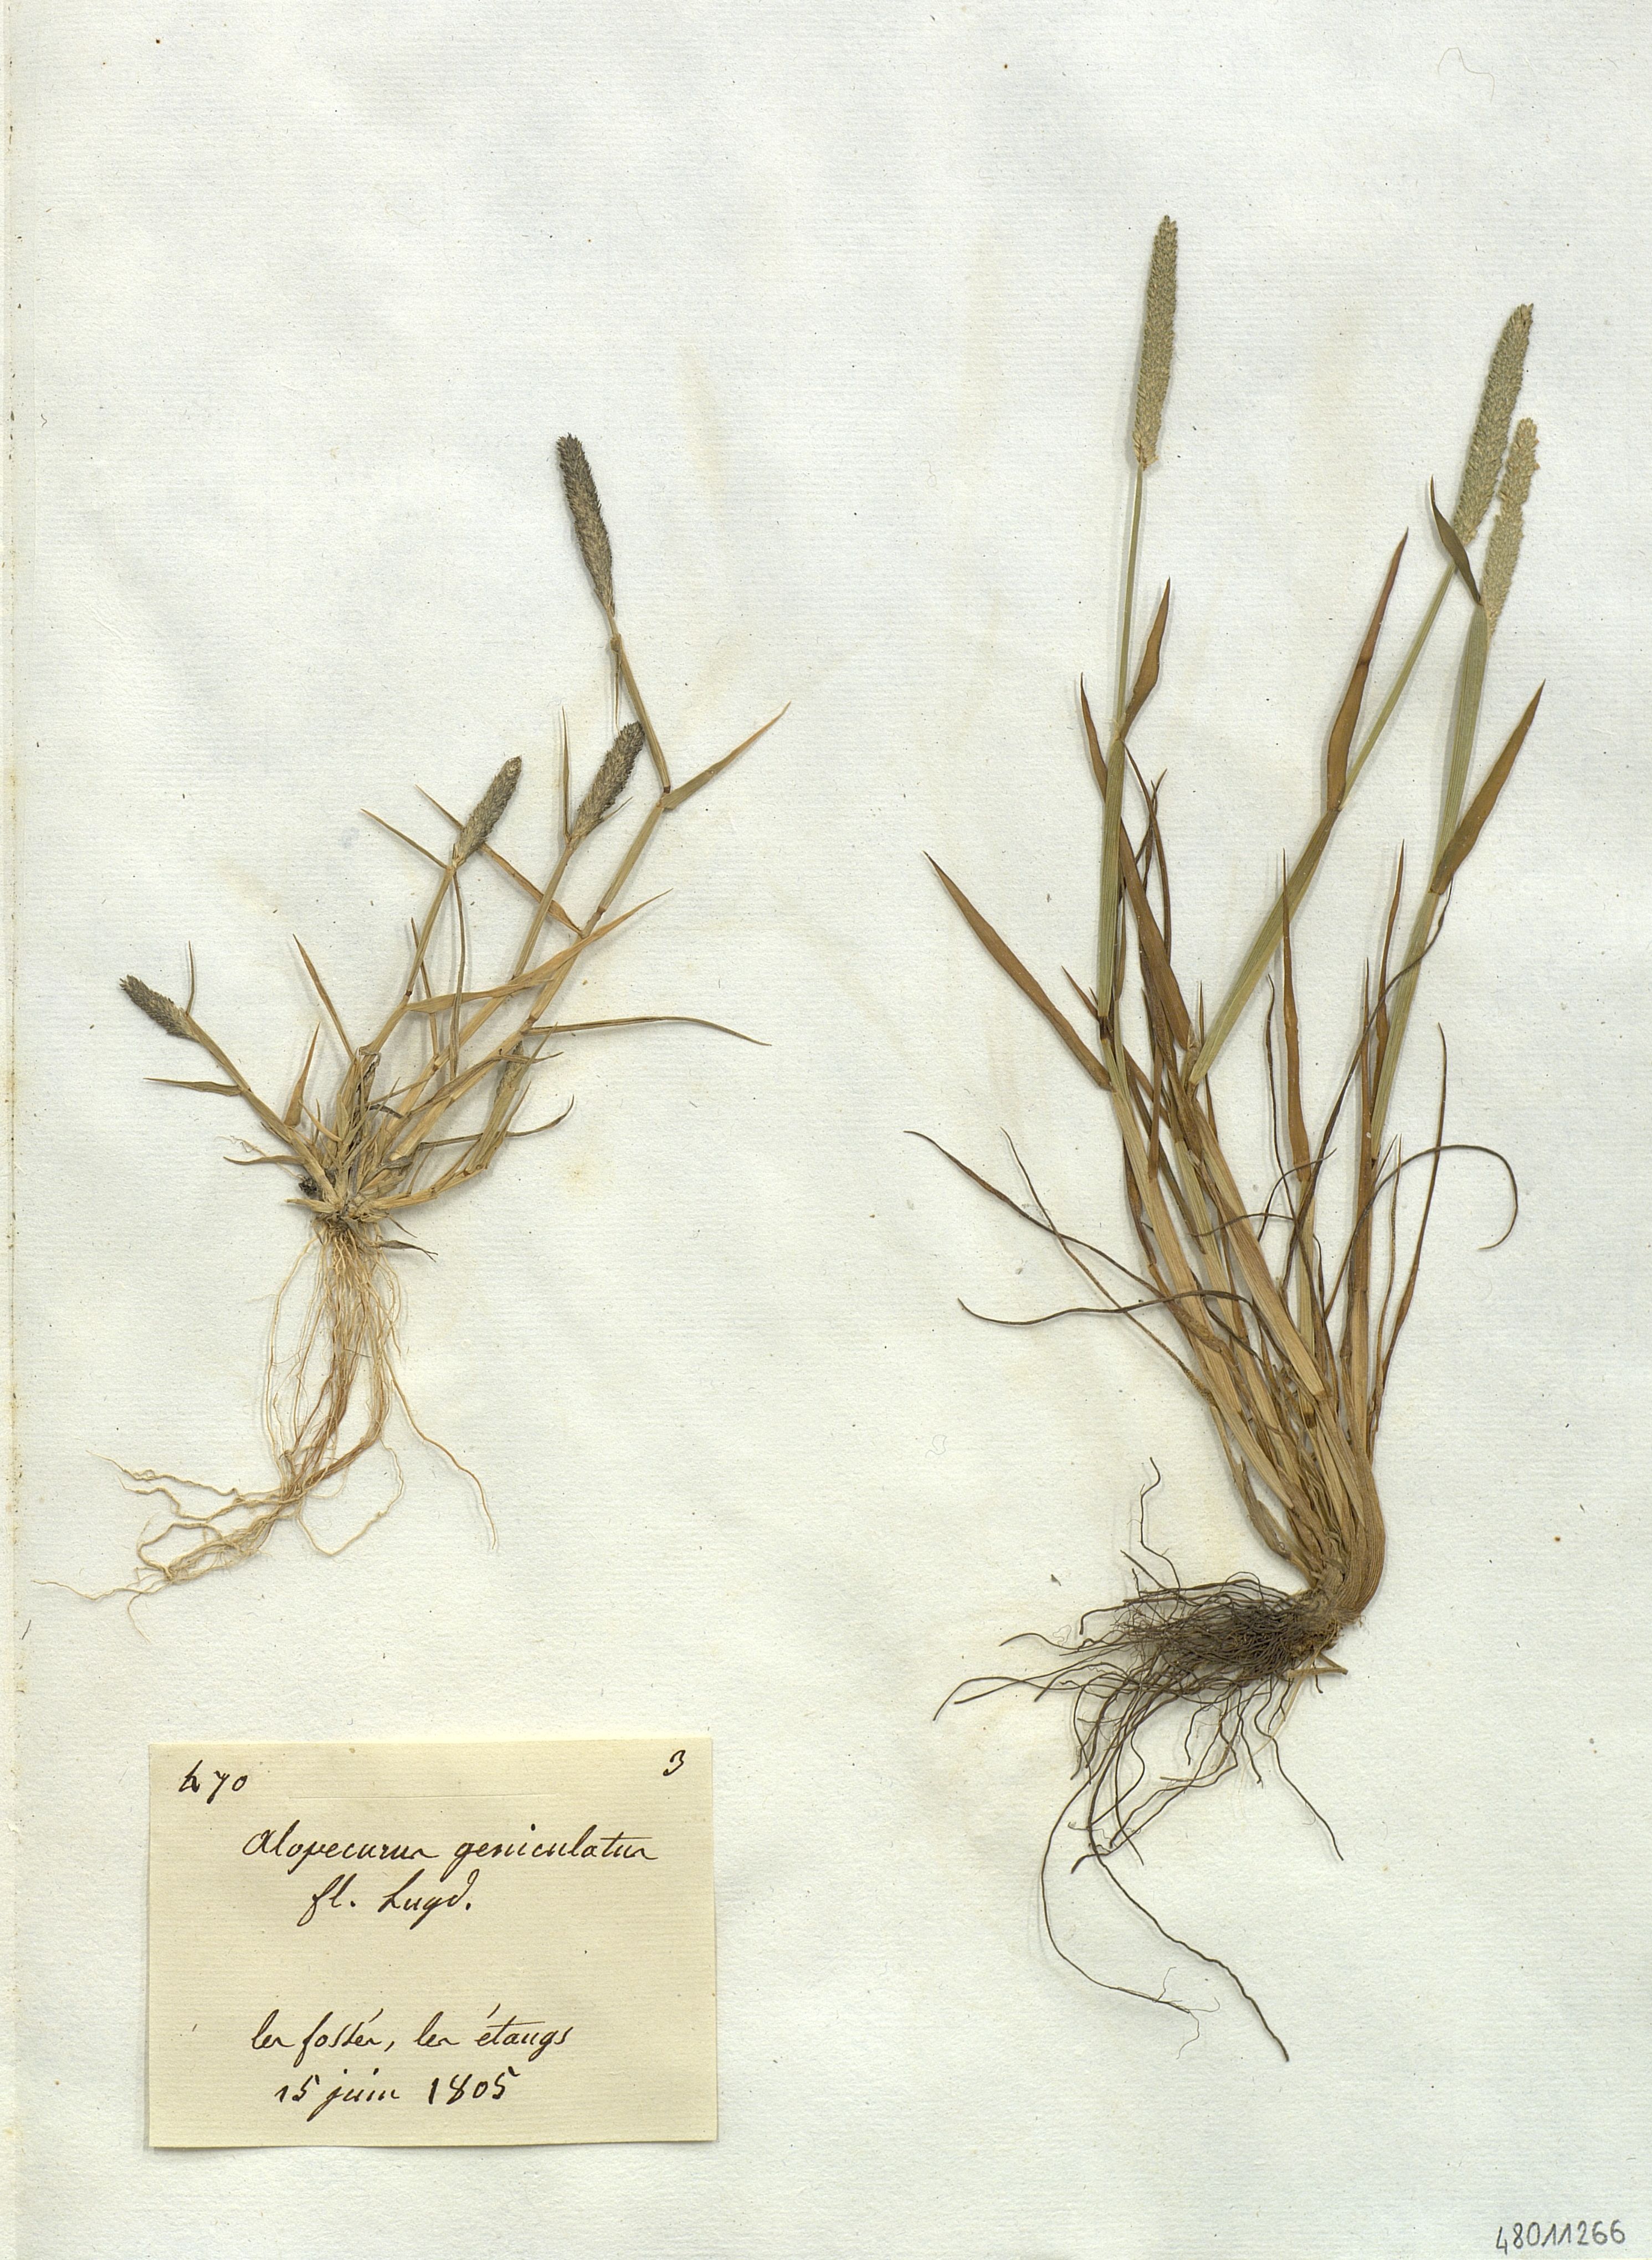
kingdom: Plantae
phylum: Tracheophyta
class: Liliopsida
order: Poales
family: Poaceae
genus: Alopecurus
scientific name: Alopecurus geniculatus
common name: Water foxtail
